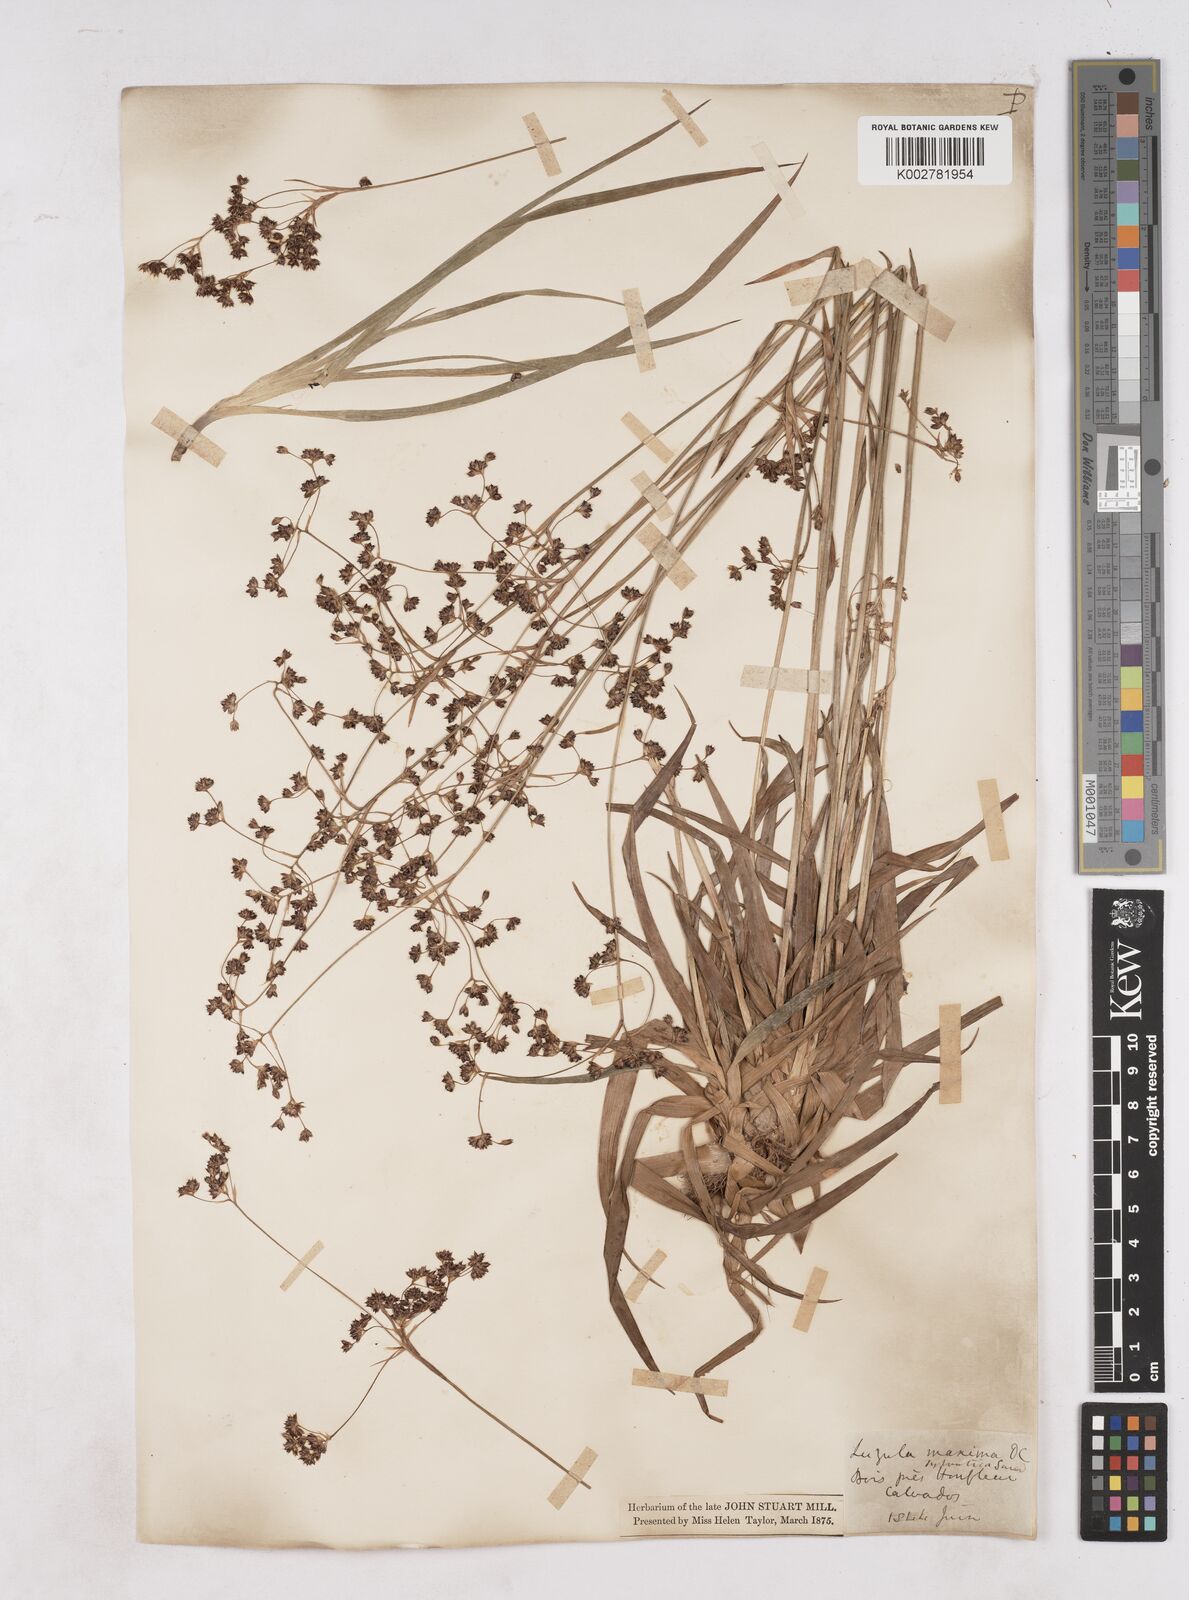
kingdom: Plantae
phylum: Tracheophyta
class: Liliopsida
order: Poales
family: Juncaceae
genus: Luzula
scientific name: Luzula sylvatica
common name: Great wood-rush
